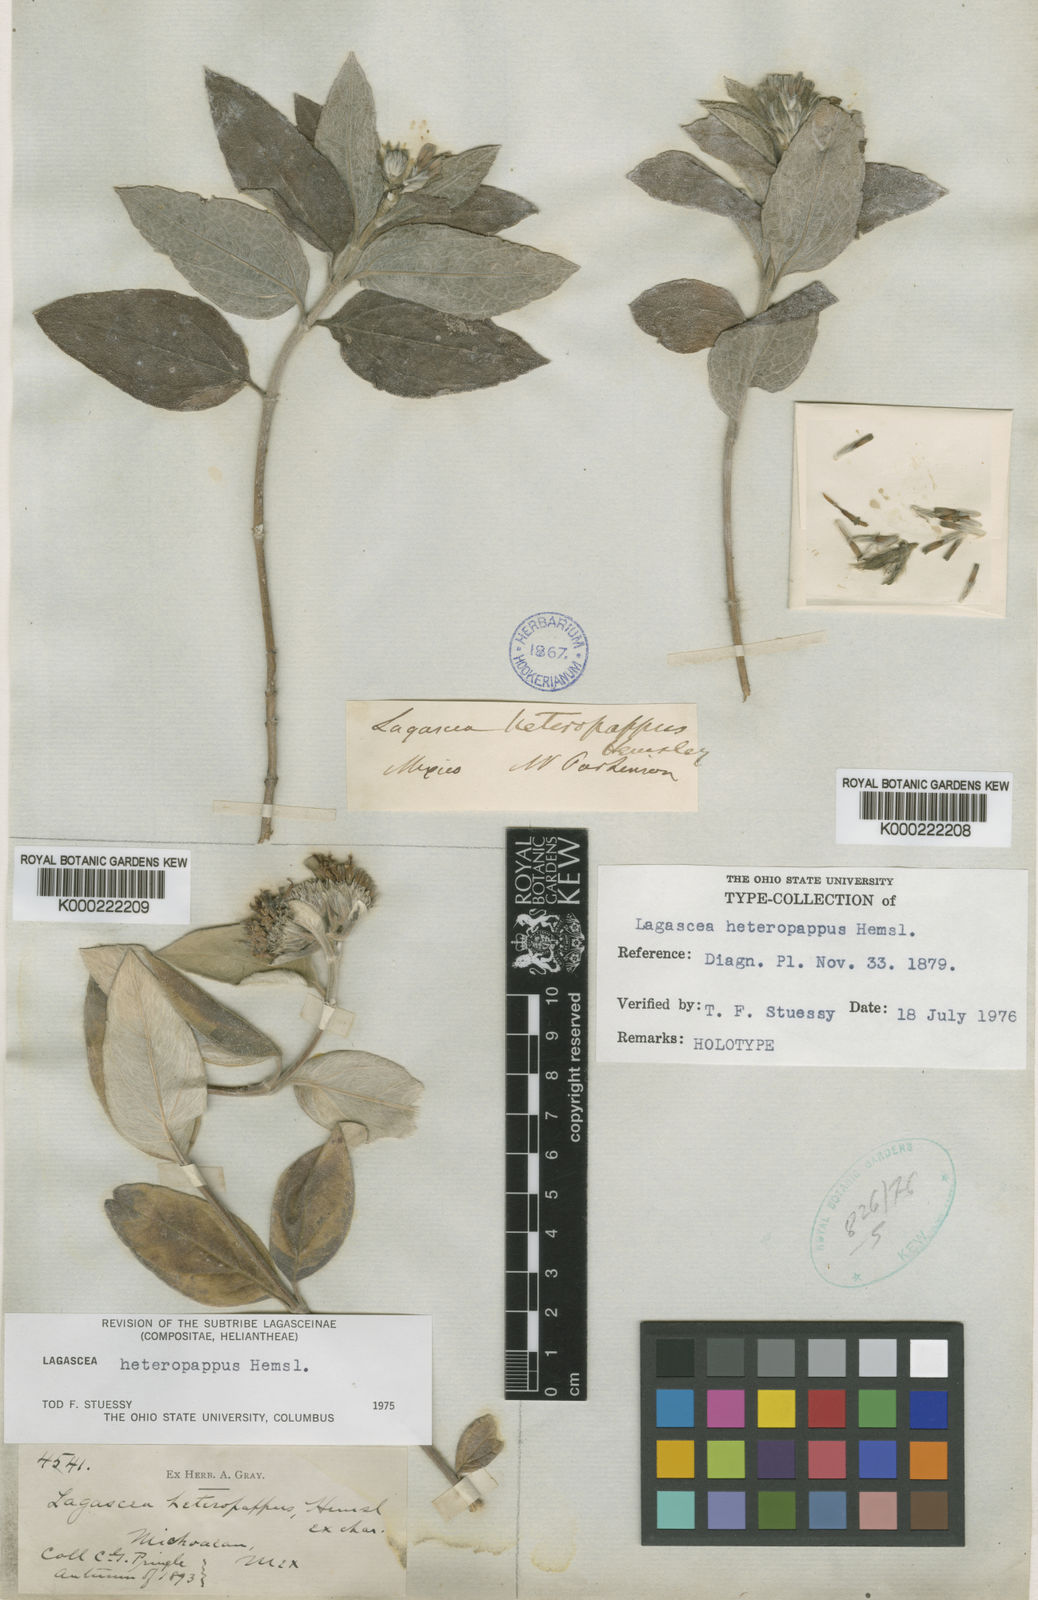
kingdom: Plantae
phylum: Tracheophyta
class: Magnoliopsida
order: Asterales
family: Asteraceae
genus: Lagascea
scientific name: Lagascea heteropappus
